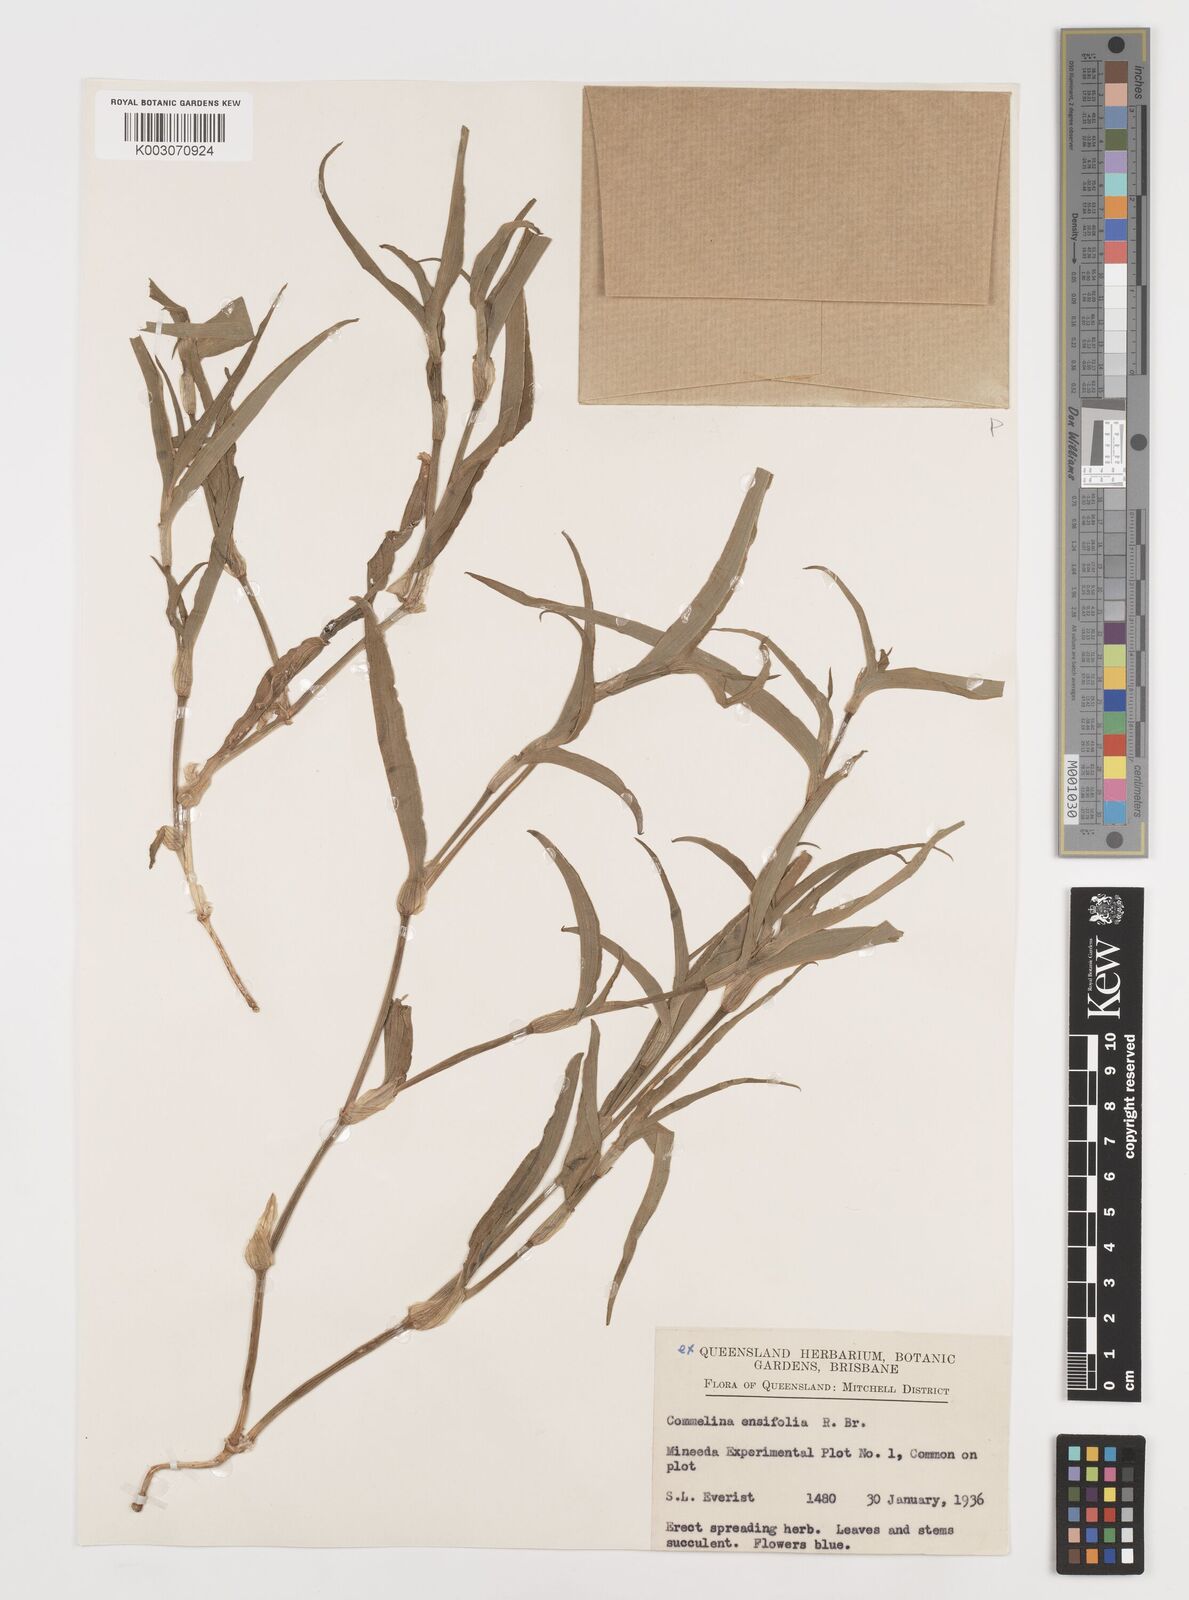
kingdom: Plantae
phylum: Tracheophyta
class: Liliopsida
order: Commelinales
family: Commelinaceae
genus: Commelina
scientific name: Commelina ensifolia
